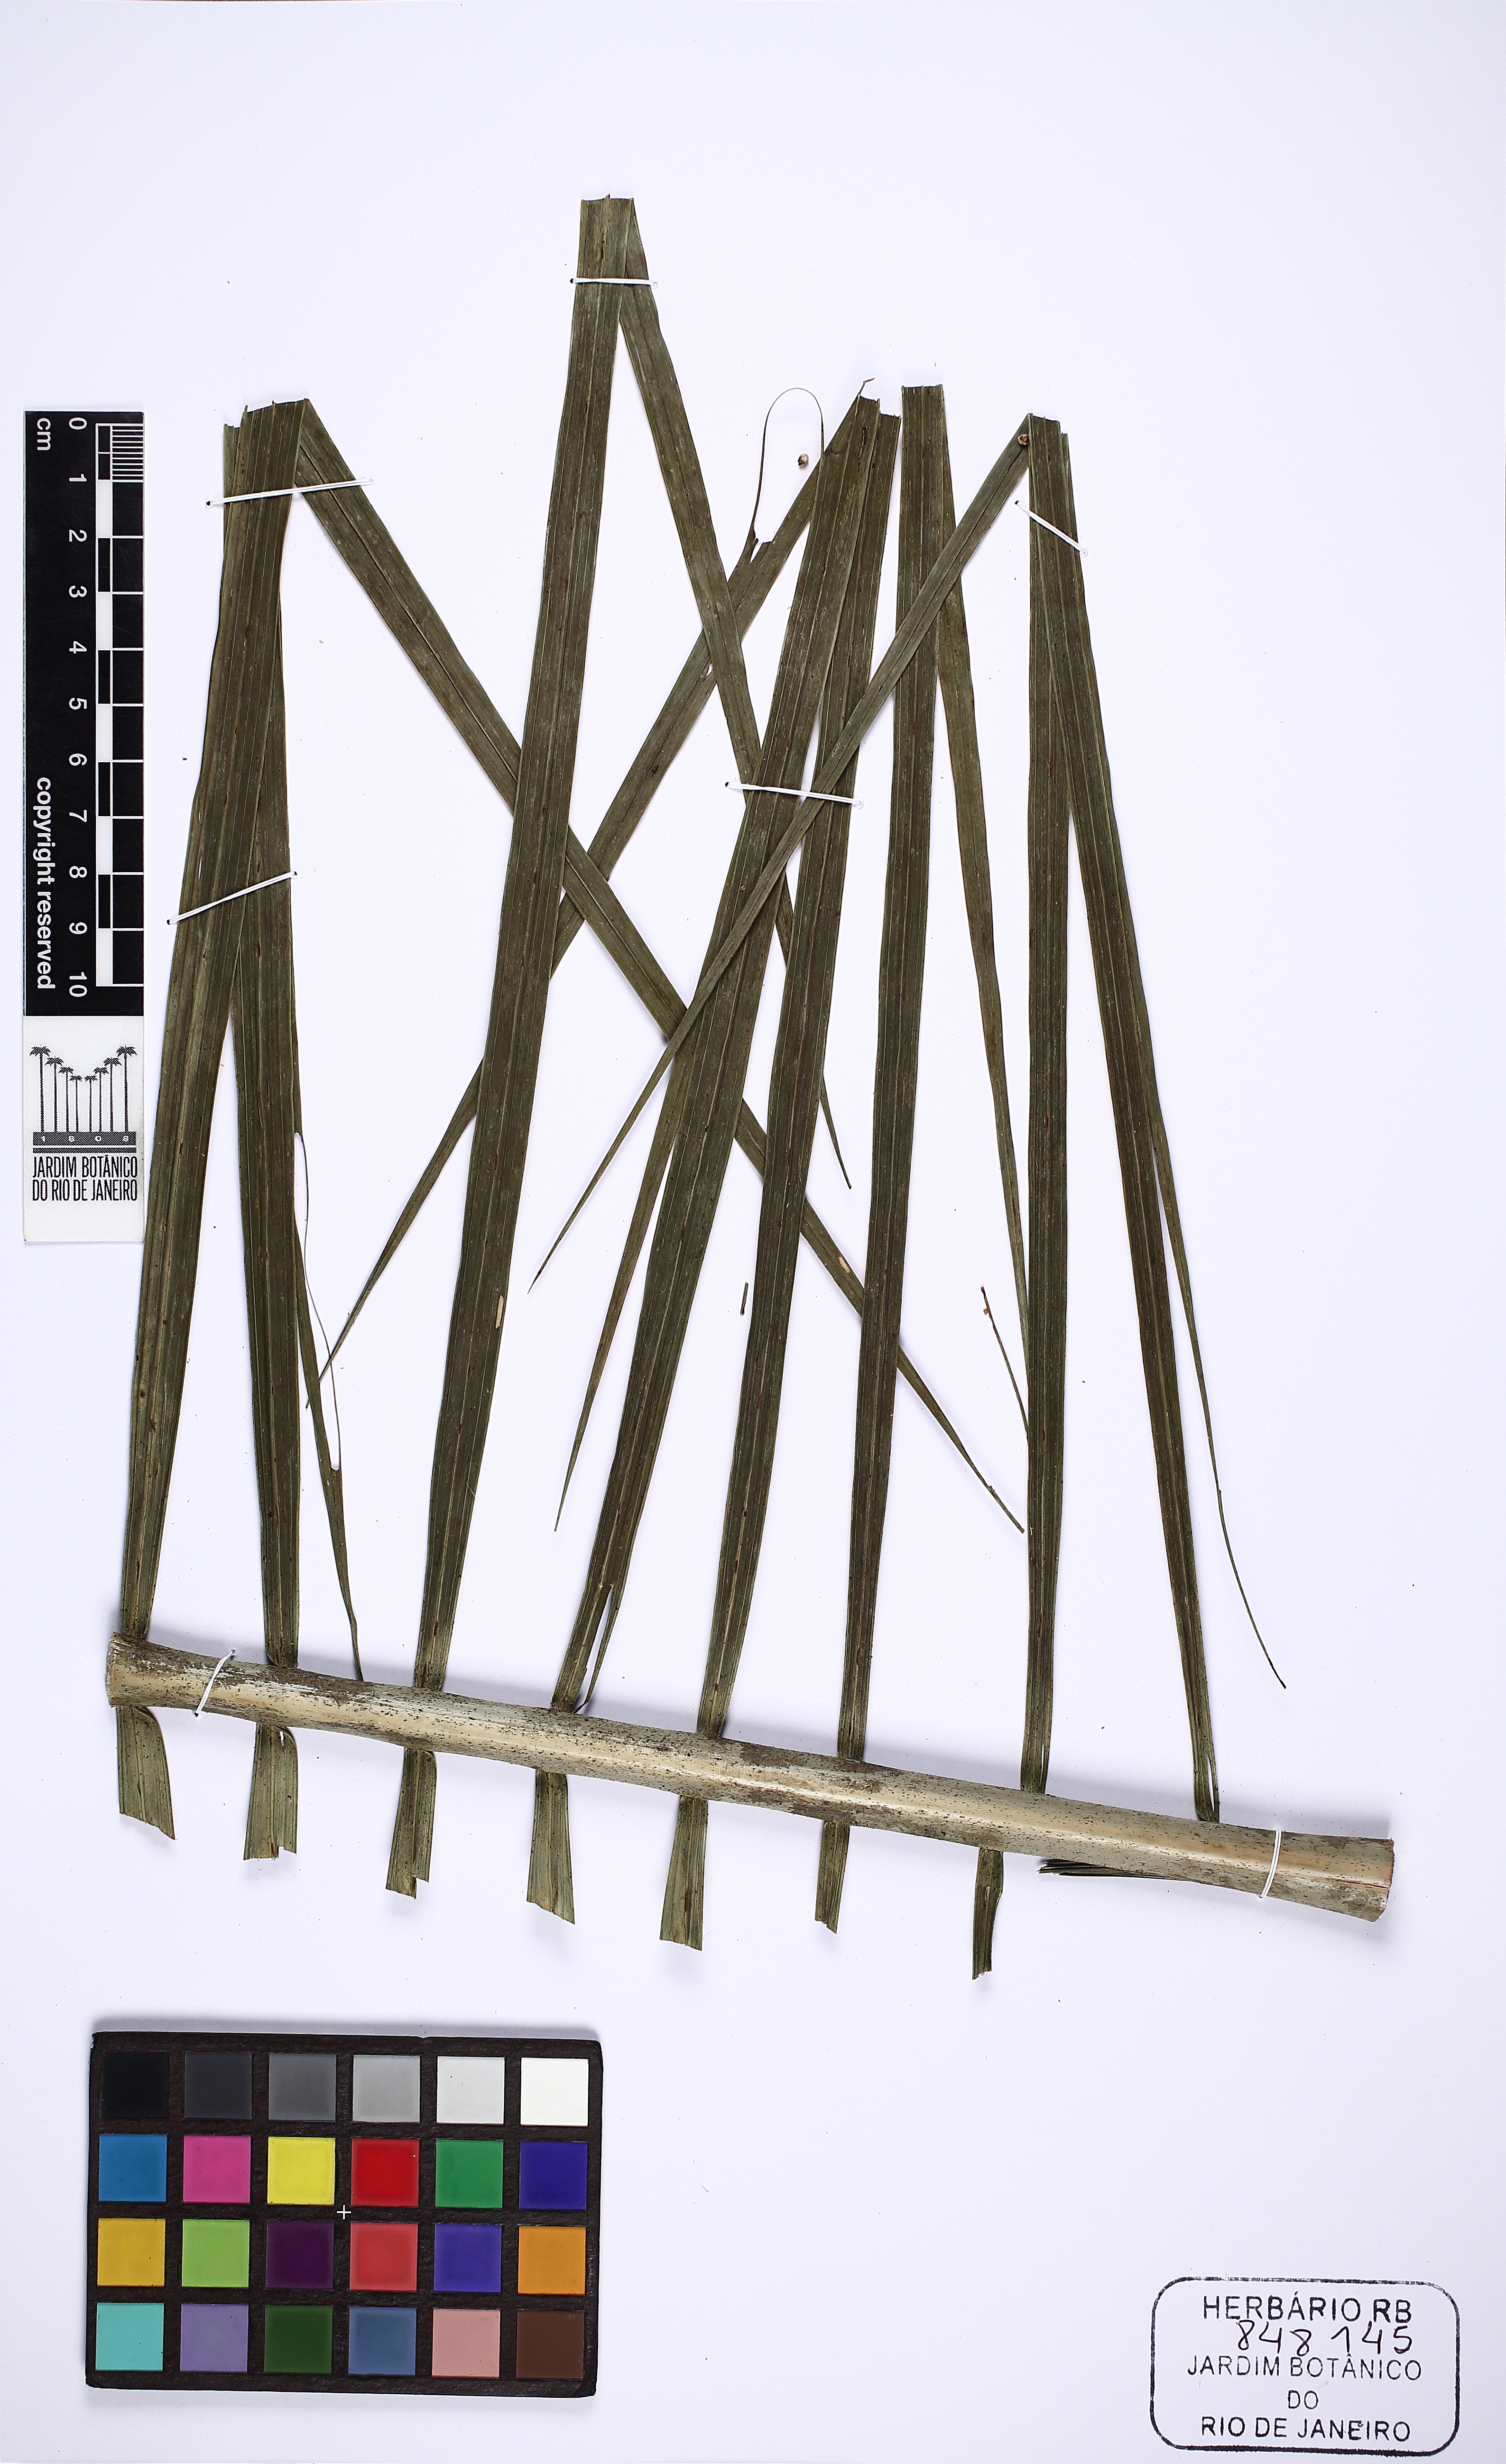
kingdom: Plantae
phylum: Tracheophyta
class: Liliopsida
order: Arecales
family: Arecaceae
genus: Euterpe
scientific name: Euterpe oleracea
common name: Assai palm
